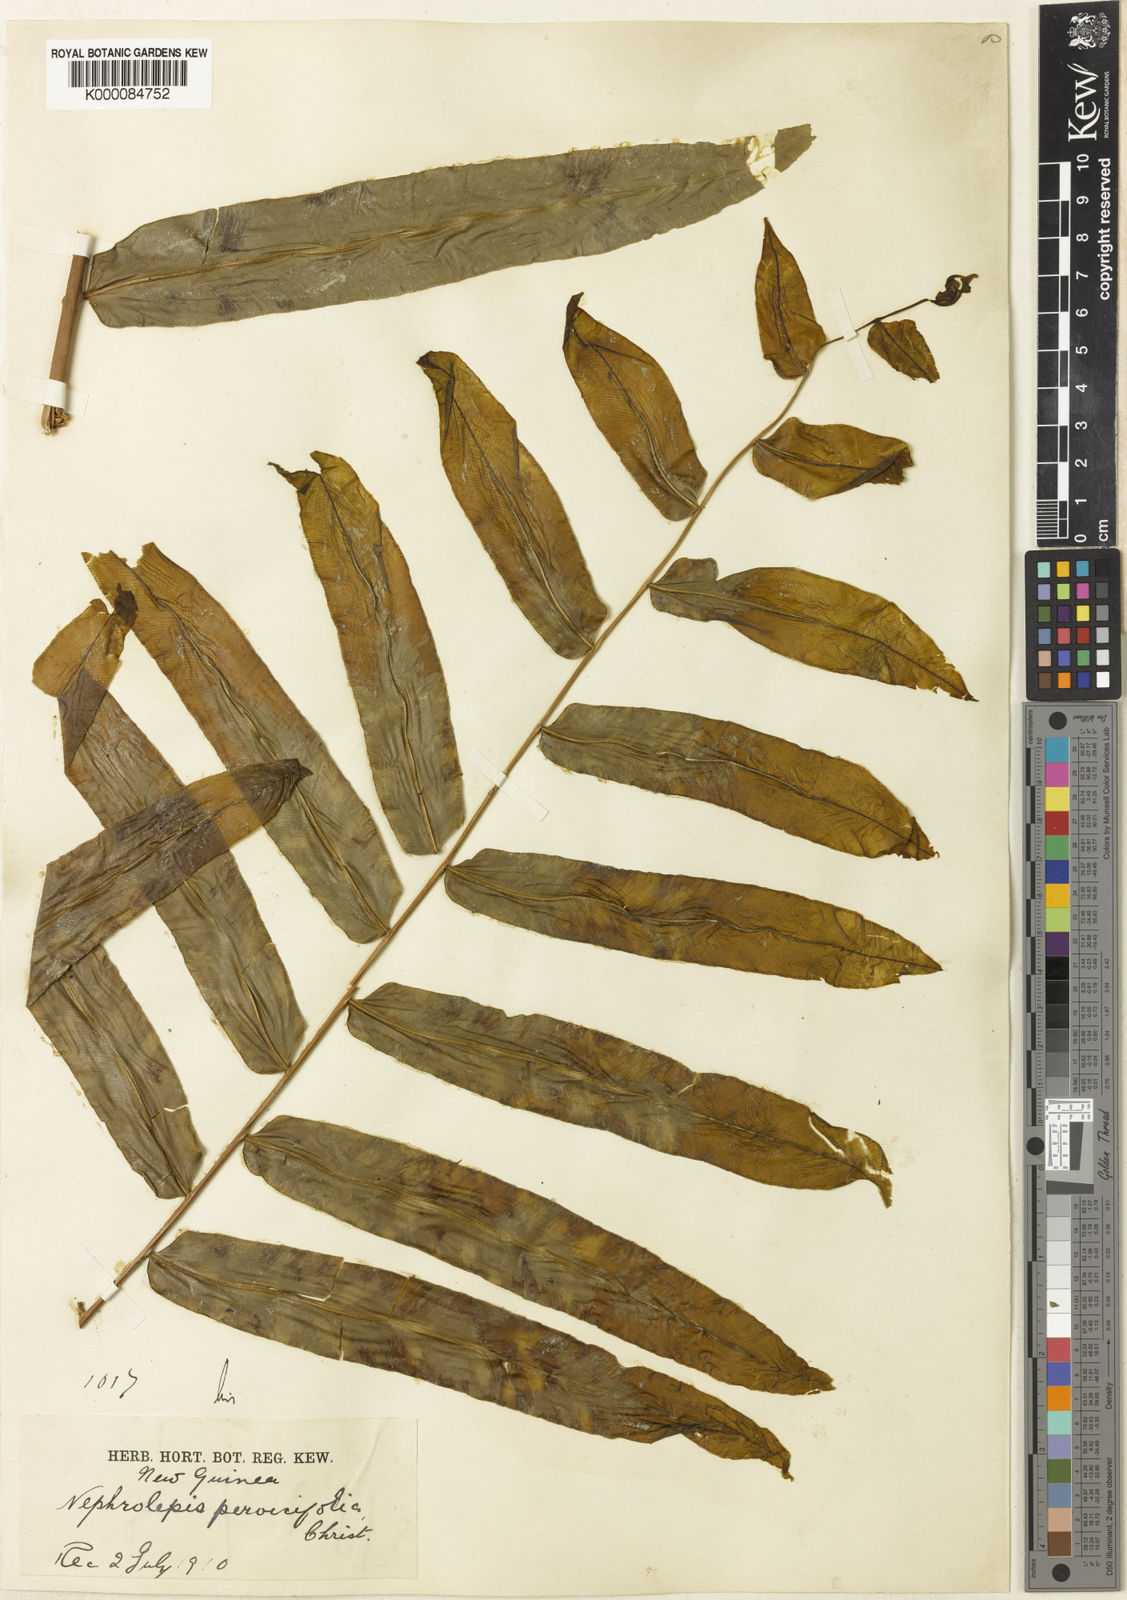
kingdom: Plantae
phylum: Tracheophyta
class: Polypodiopsida
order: Polypodiales
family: Nephrolepidaceae
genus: Nephrolepis
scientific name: Nephrolepis biserrata
